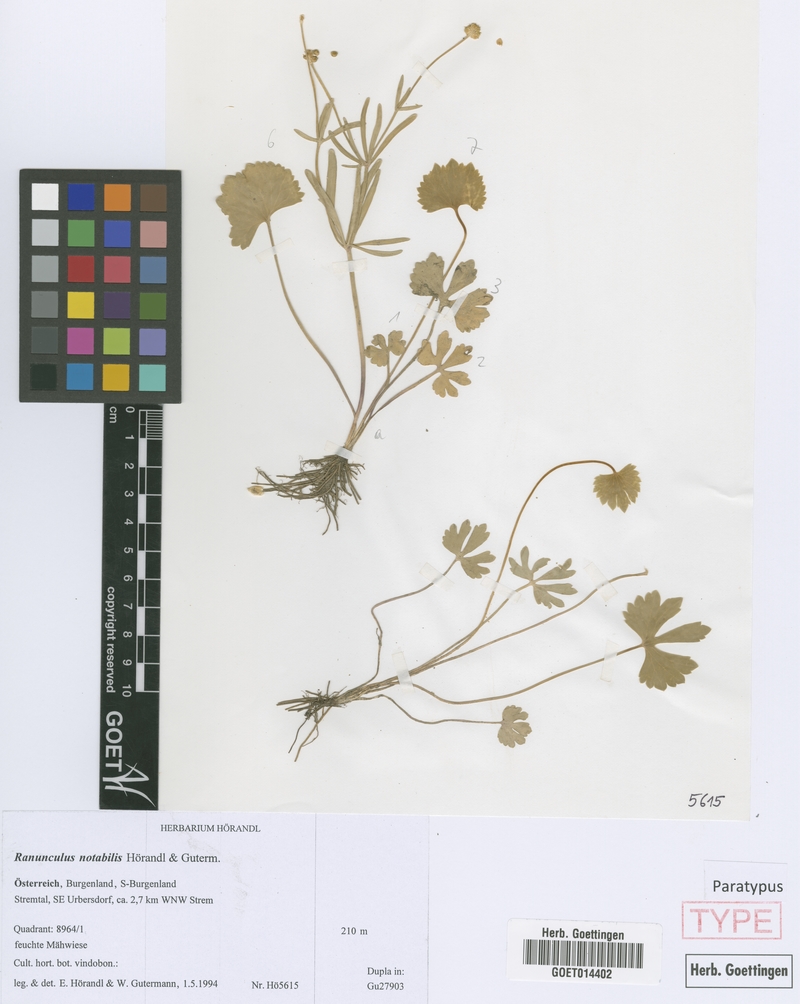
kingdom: Plantae
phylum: Tracheophyta
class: Magnoliopsida
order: Ranunculales
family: Ranunculaceae
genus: Ranunculus
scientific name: Ranunculus notabilis
